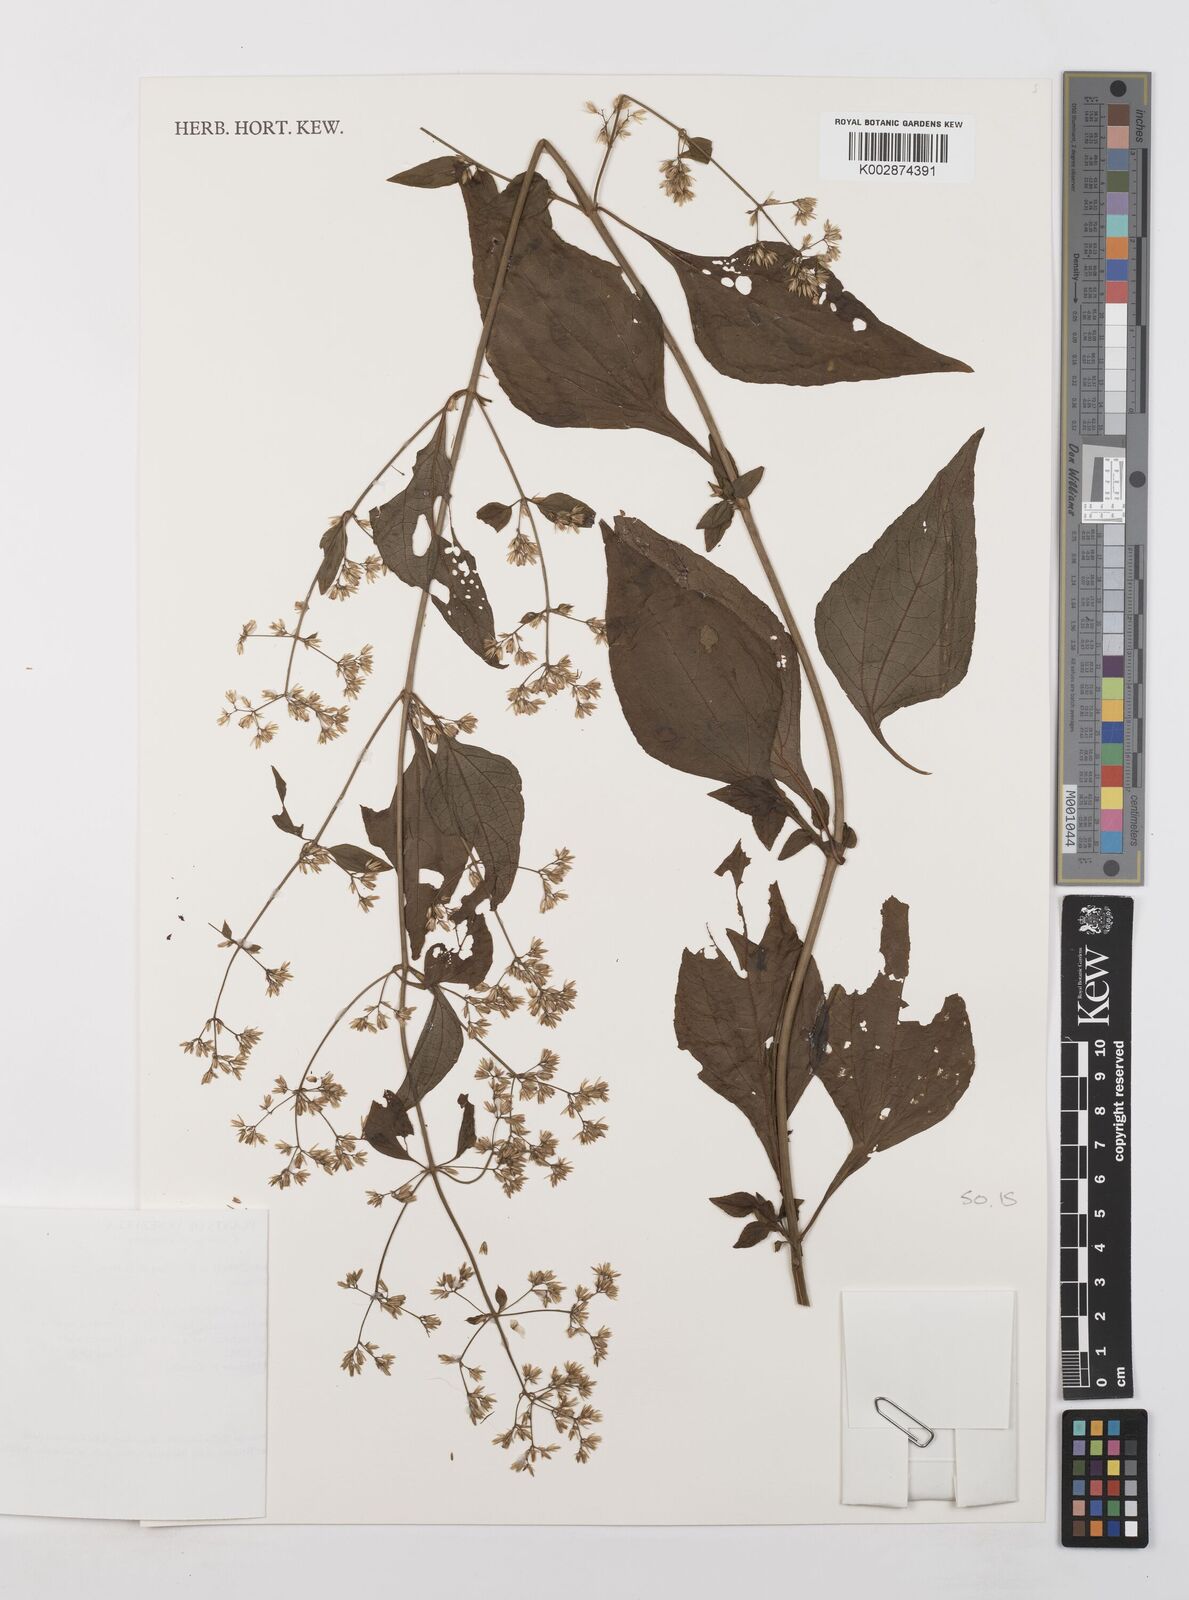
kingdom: Plantae
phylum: Tracheophyta
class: Magnoliopsida
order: Asterales
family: Asteraceae
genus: Condylidium
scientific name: Condylidium iresinoides
